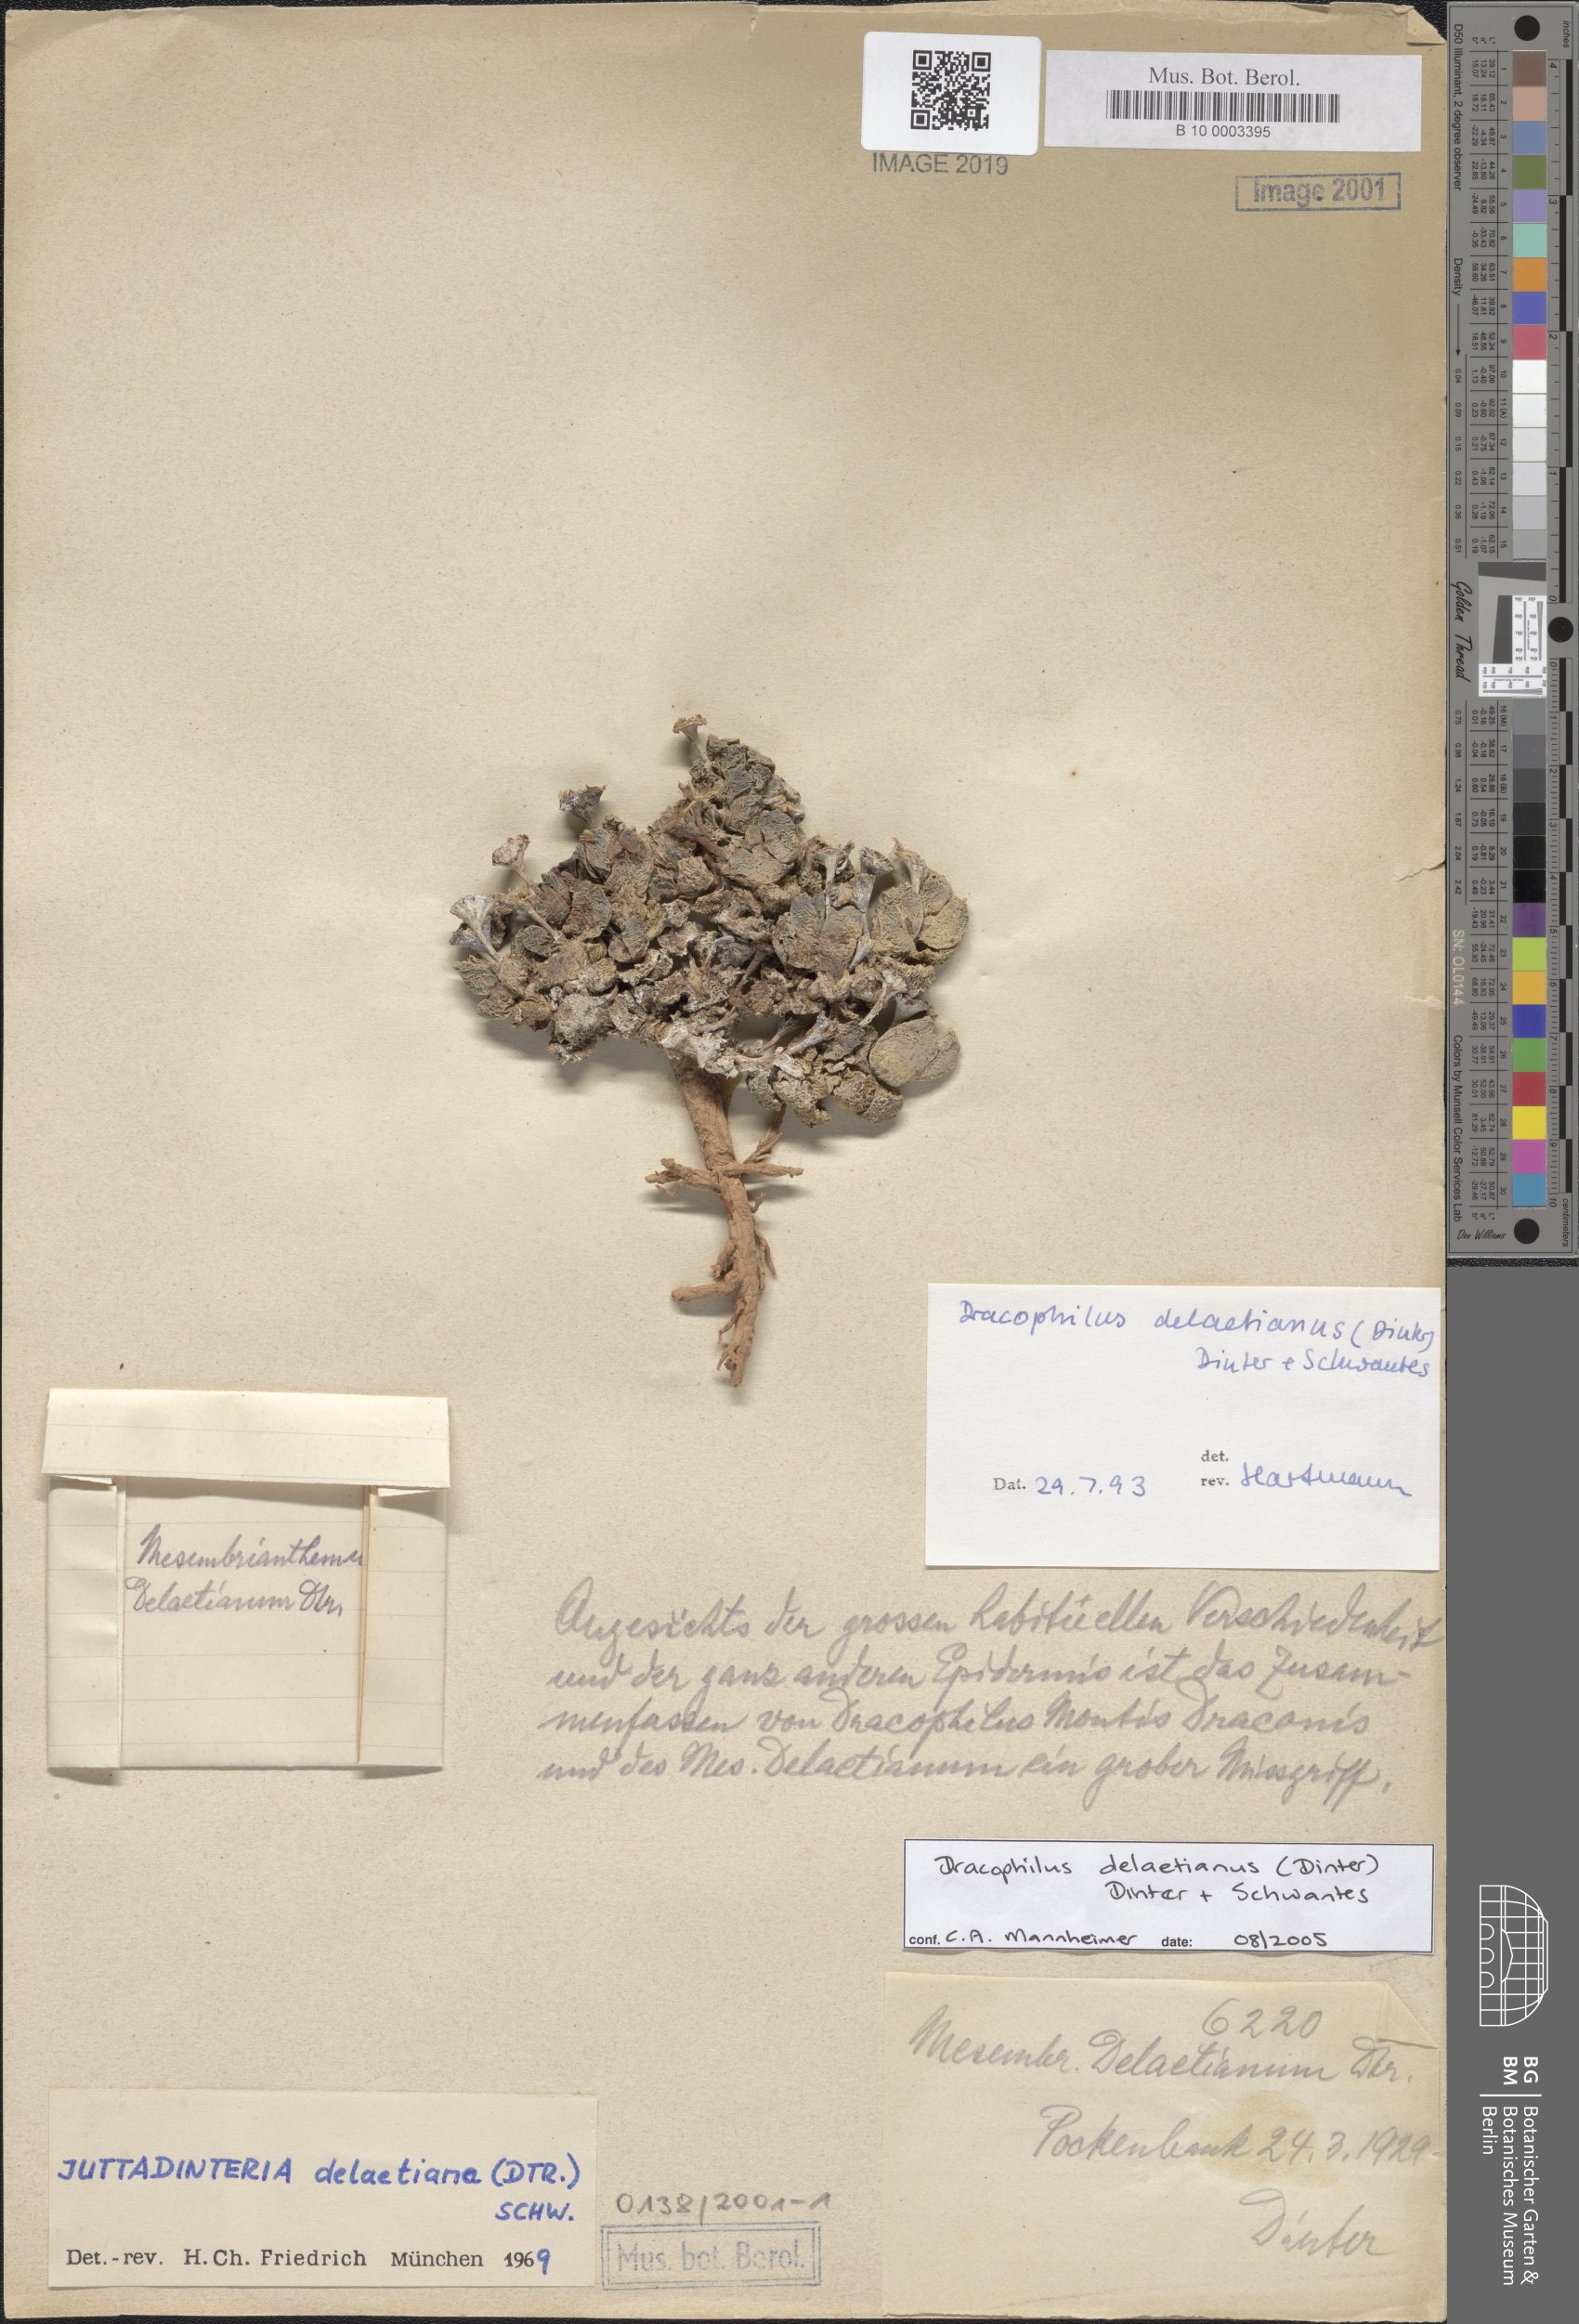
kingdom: Plantae
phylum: Tracheophyta
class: Magnoliopsida
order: Caryophyllales
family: Aizoaceae
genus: Dracophilus
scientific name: Dracophilus delaetianus
